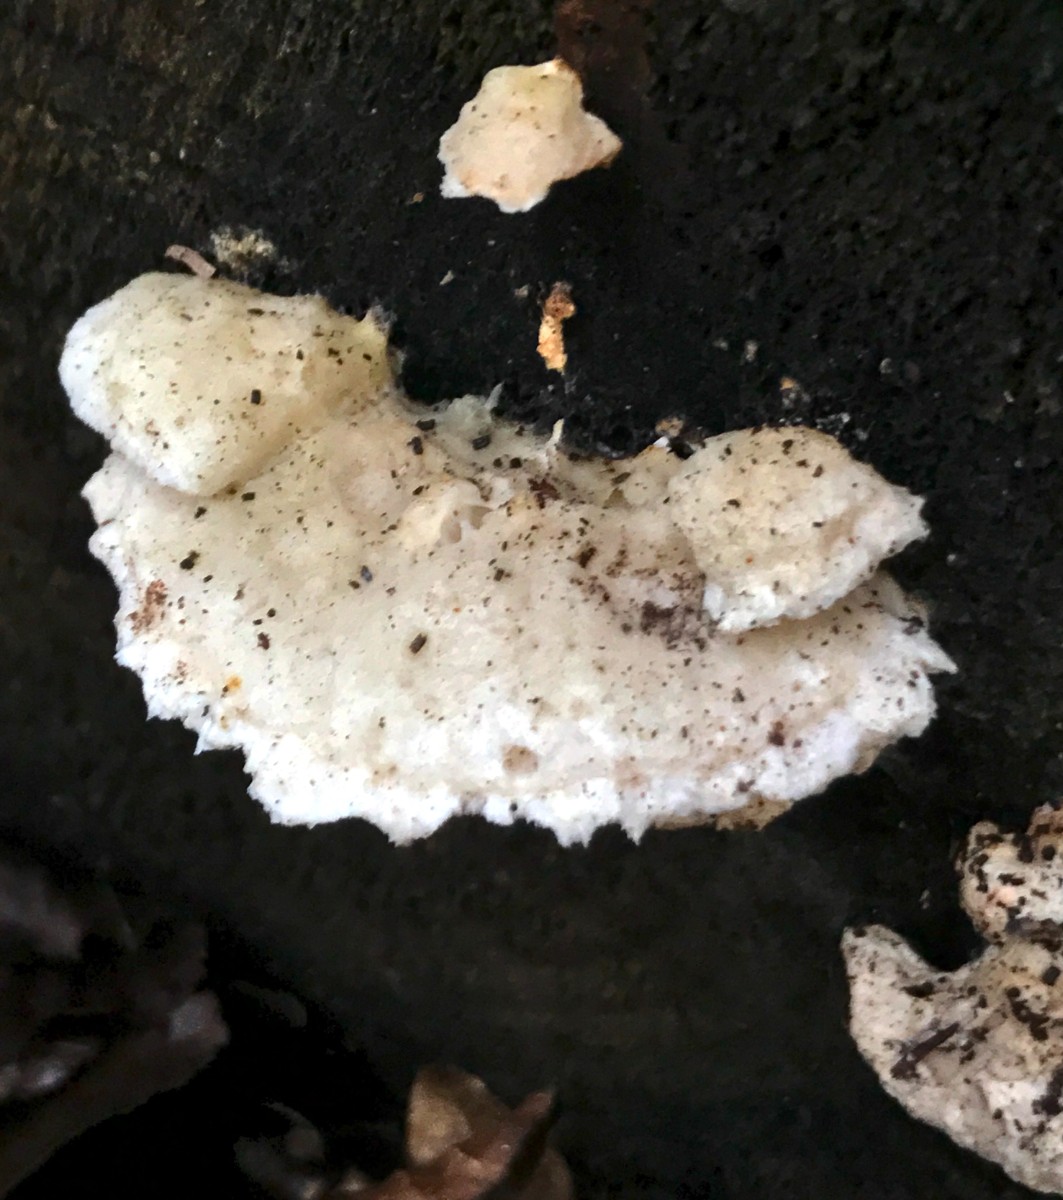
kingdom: Fungi
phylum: Basidiomycota
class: Agaricomycetes
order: Polyporales
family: Incrustoporiaceae
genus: Tyromyces
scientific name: Tyromyces lacteus
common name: mælkehvid kødporesvamp
